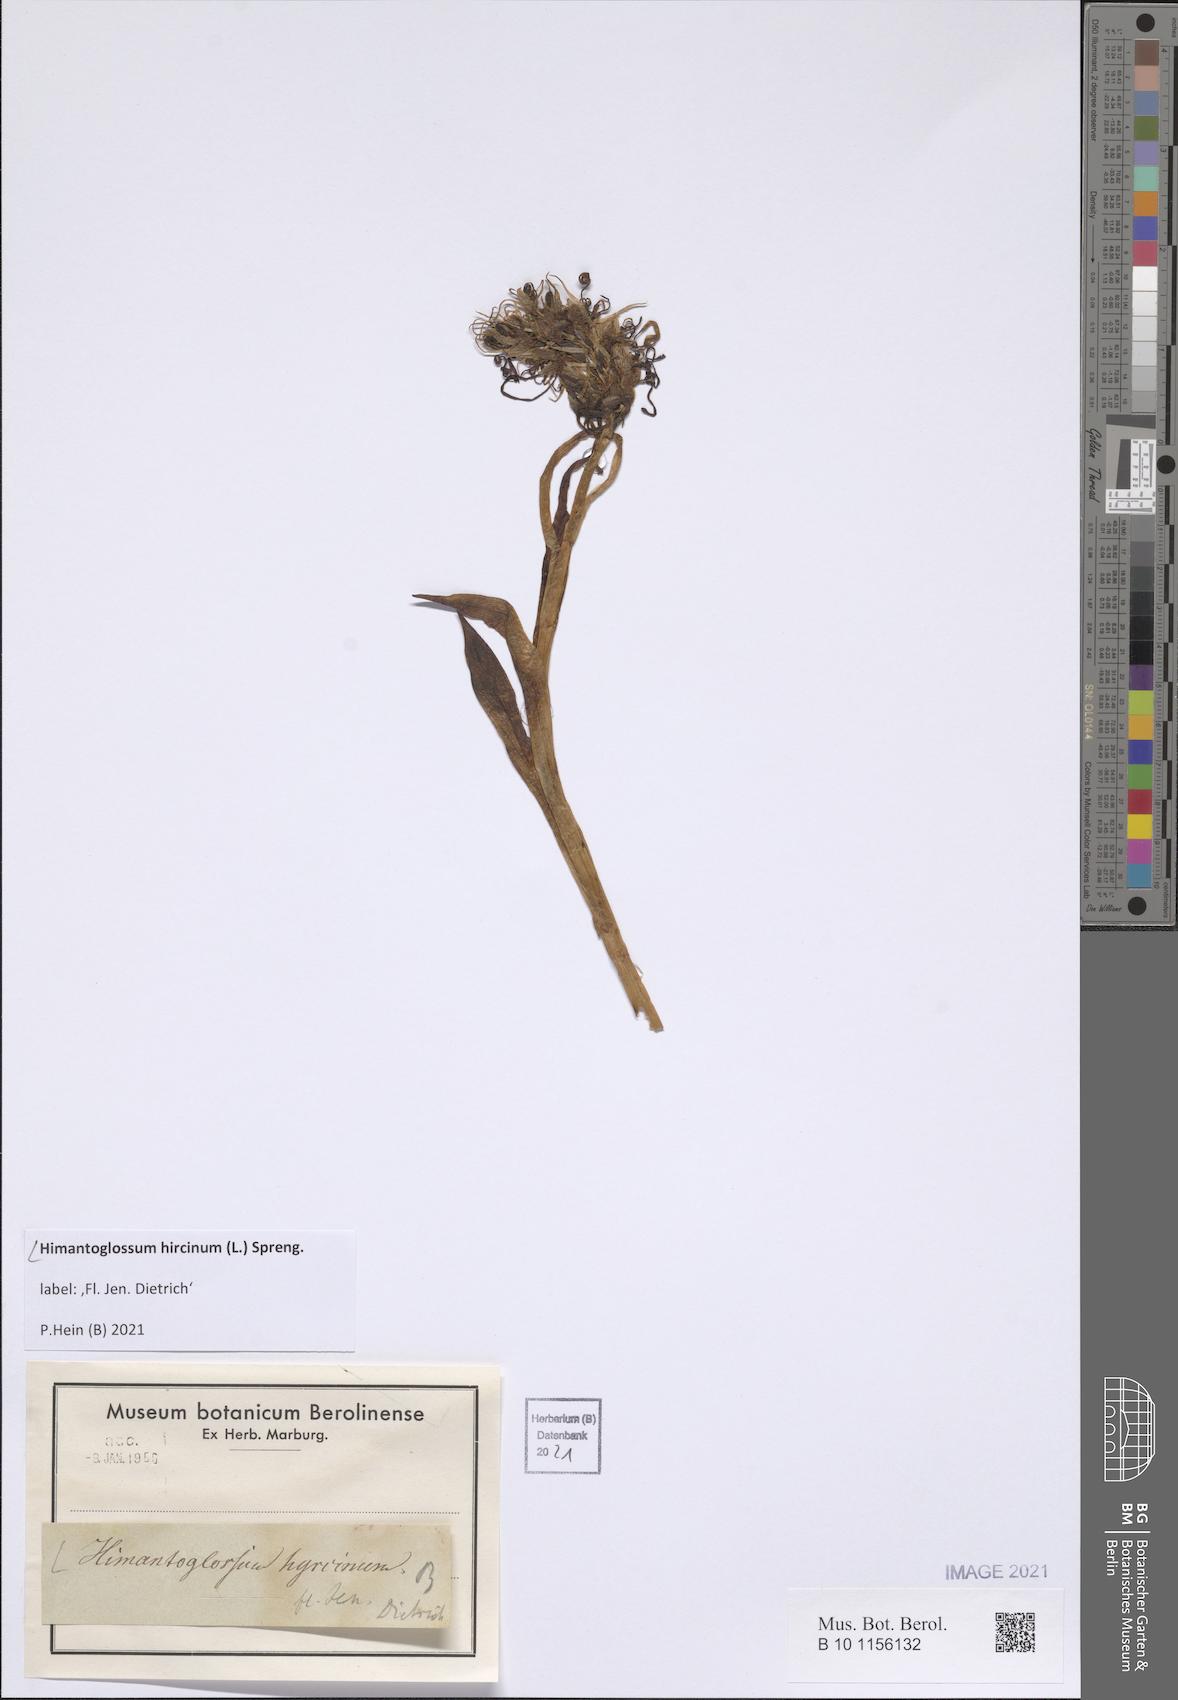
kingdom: Plantae
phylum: Tracheophyta
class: Liliopsida
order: Asparagales
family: Orchidaceae
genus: Himantoglossum
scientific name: Himantoglossum hircinum
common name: Lizard orchid
